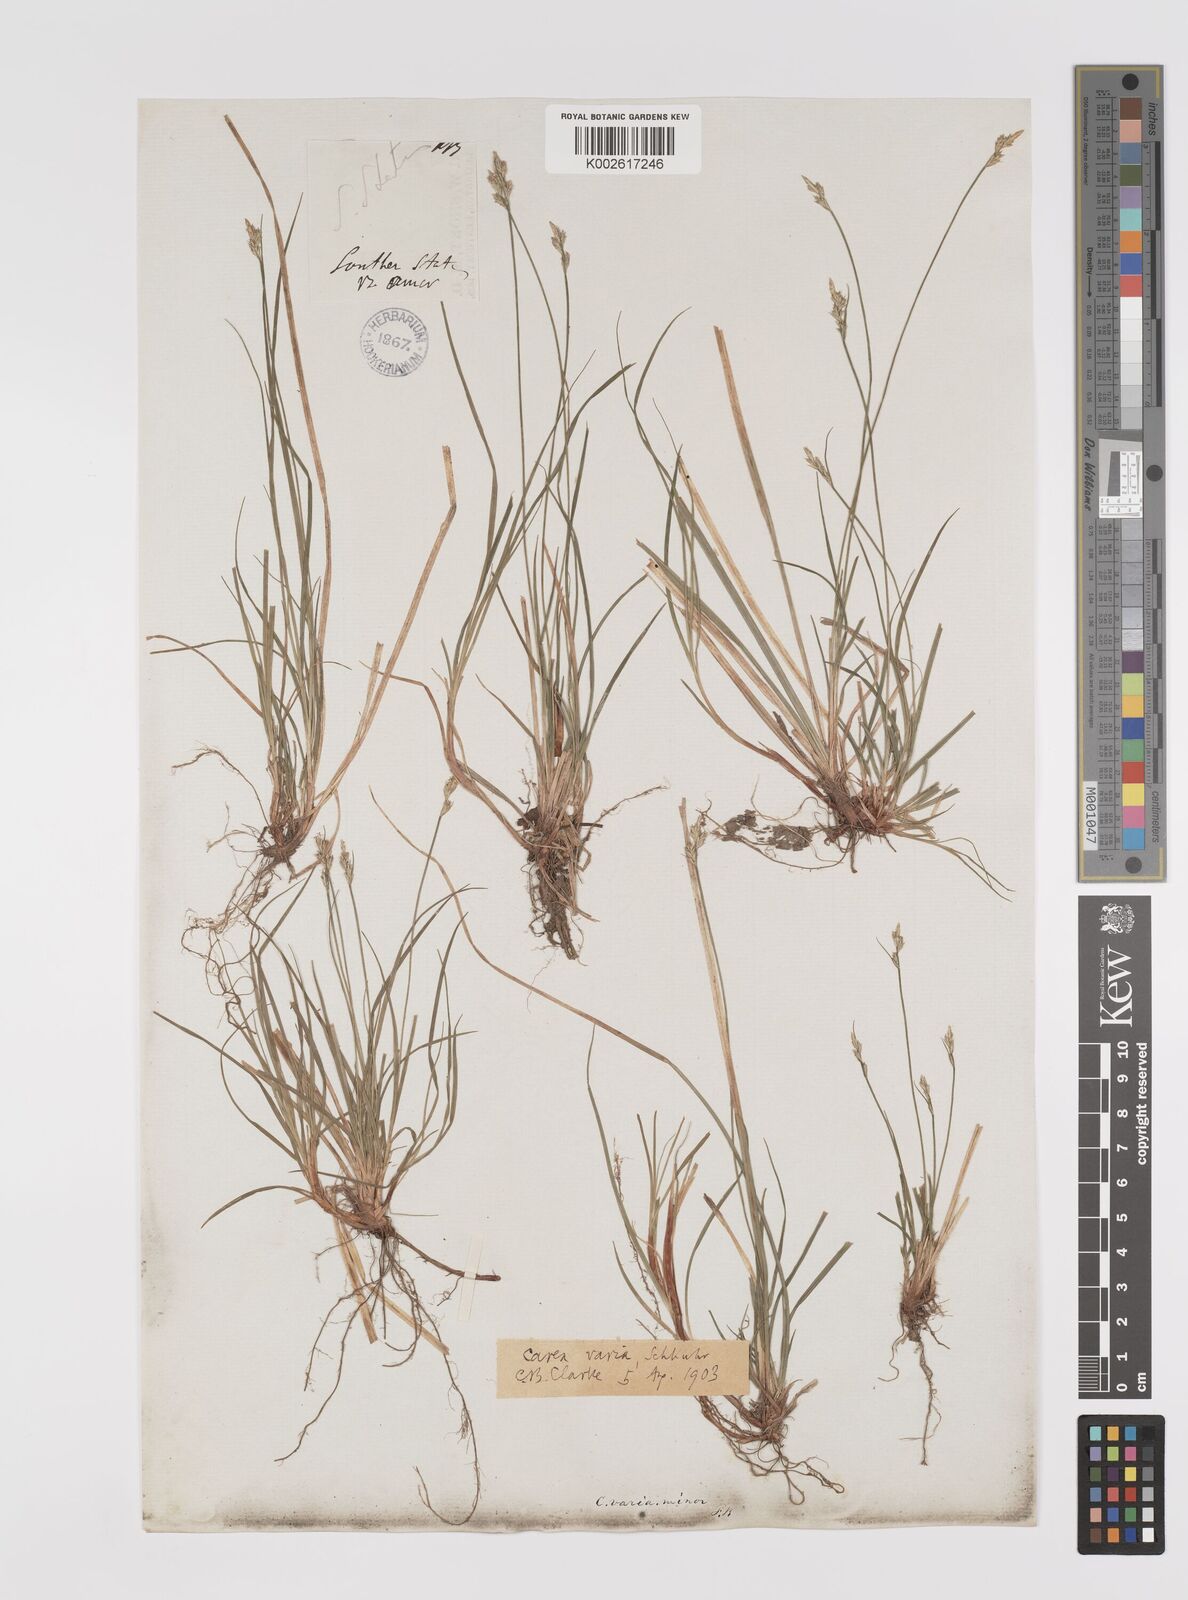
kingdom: Plantae
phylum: Tracheophyta
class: Liliopsida
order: Poales
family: Cyperaceae
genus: Carex
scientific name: Carex albicans
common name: Bellow-beaked sedge
